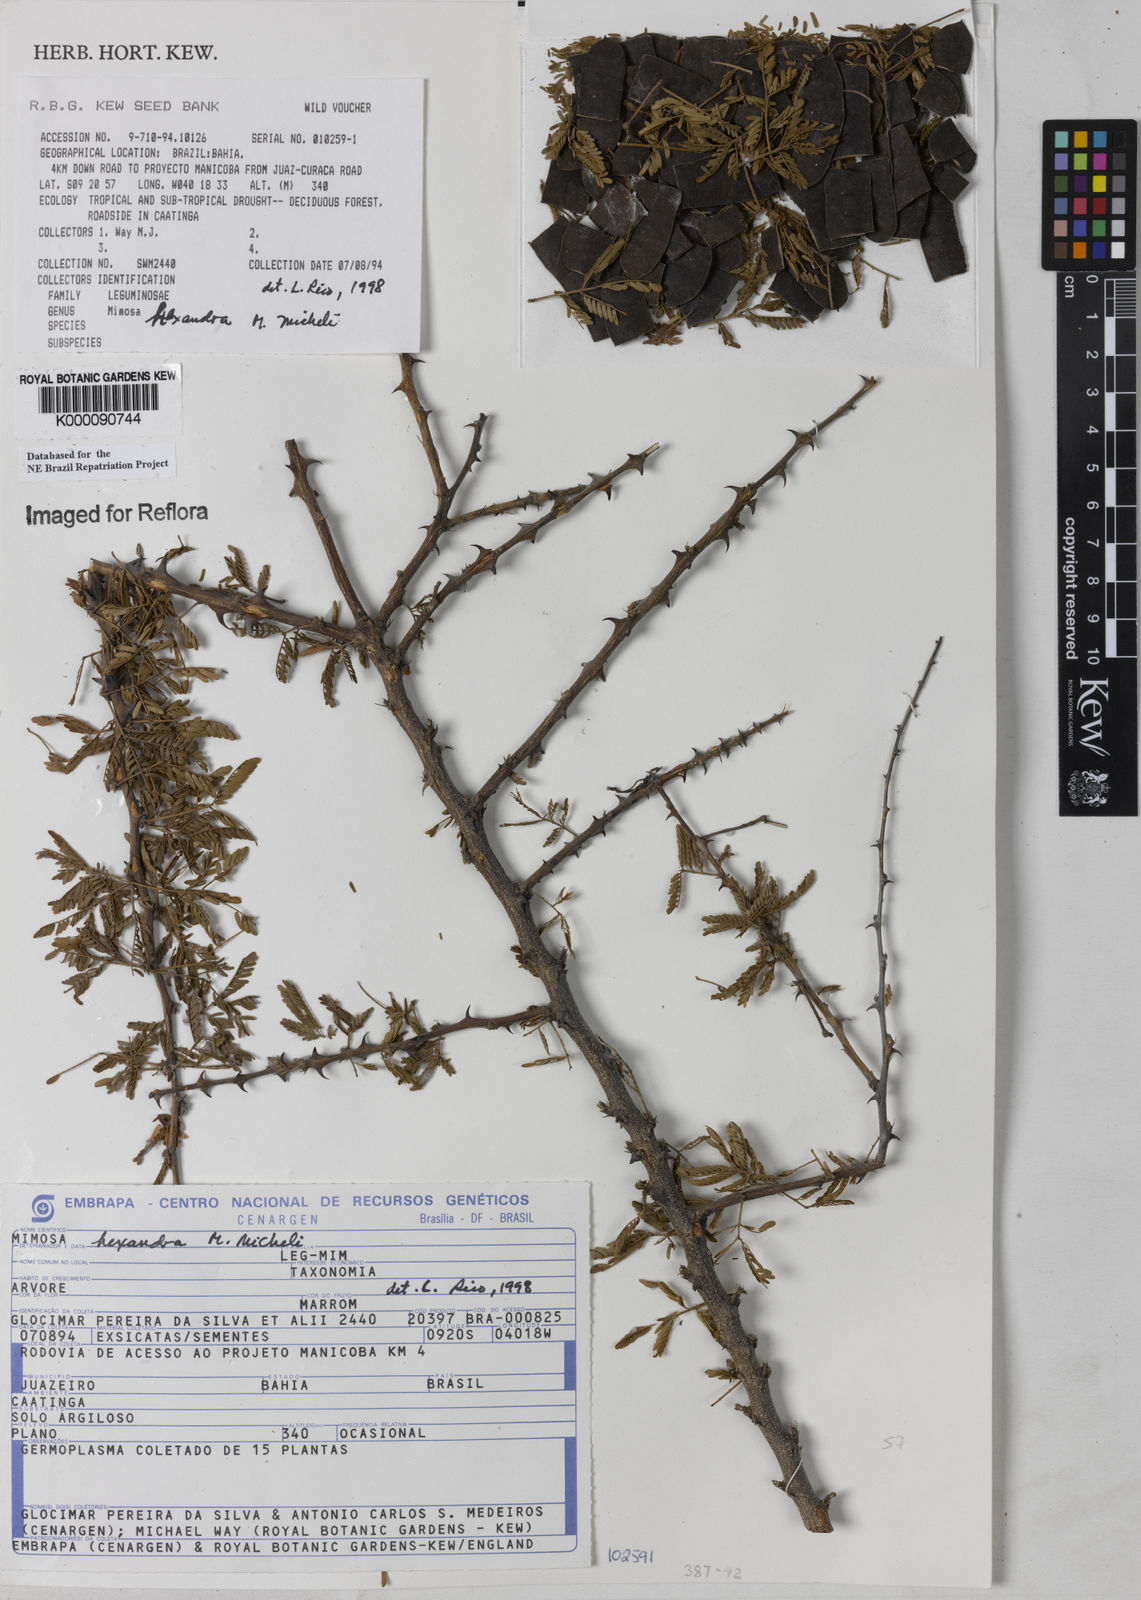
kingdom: Plantae
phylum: Tracheophyta
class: Magnoliopsida
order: Fabales
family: Fabaceae
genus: Mimosa
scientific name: Mimosa hexandra
